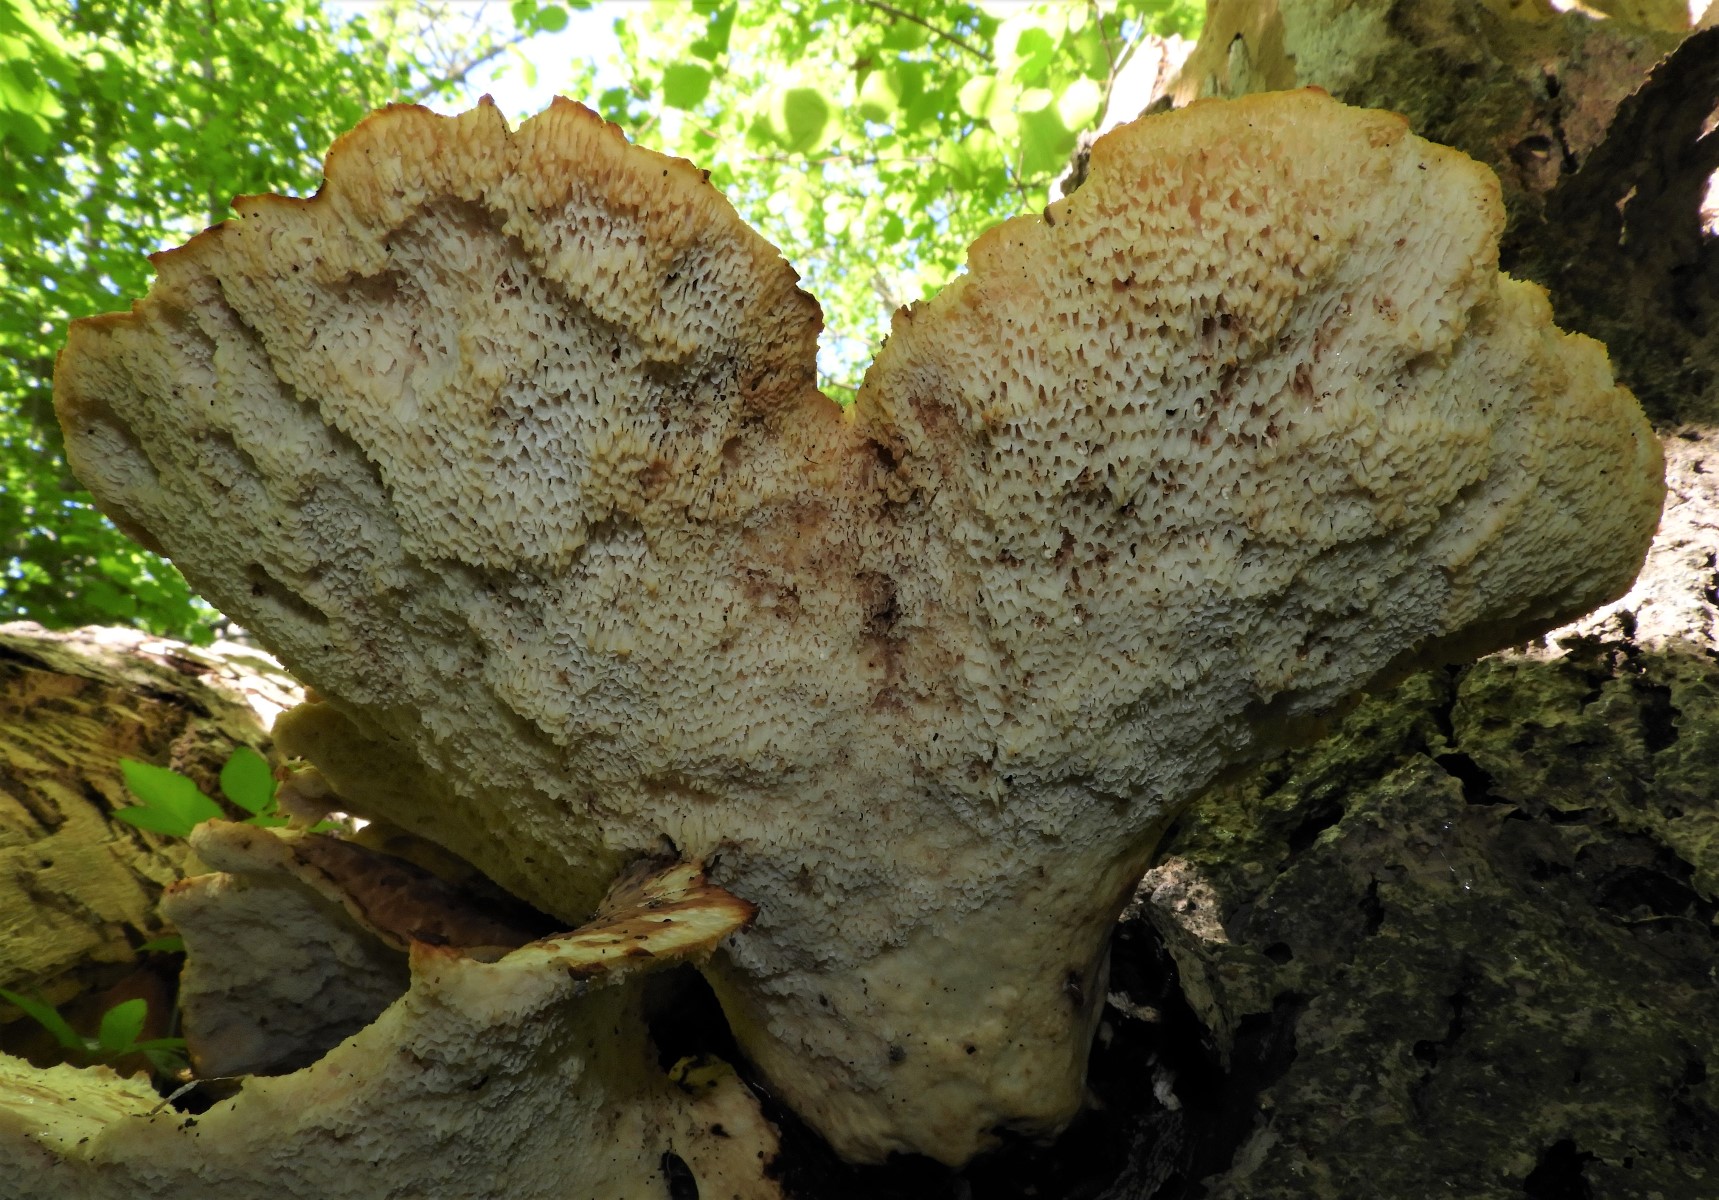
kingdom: Fungi
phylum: Basidiomycota
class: Agaricomycetes
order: Polyporales
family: Polyporaceae
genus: Cerioporus
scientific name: Cerioporus squamosus
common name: skællet stilkporesvamp
